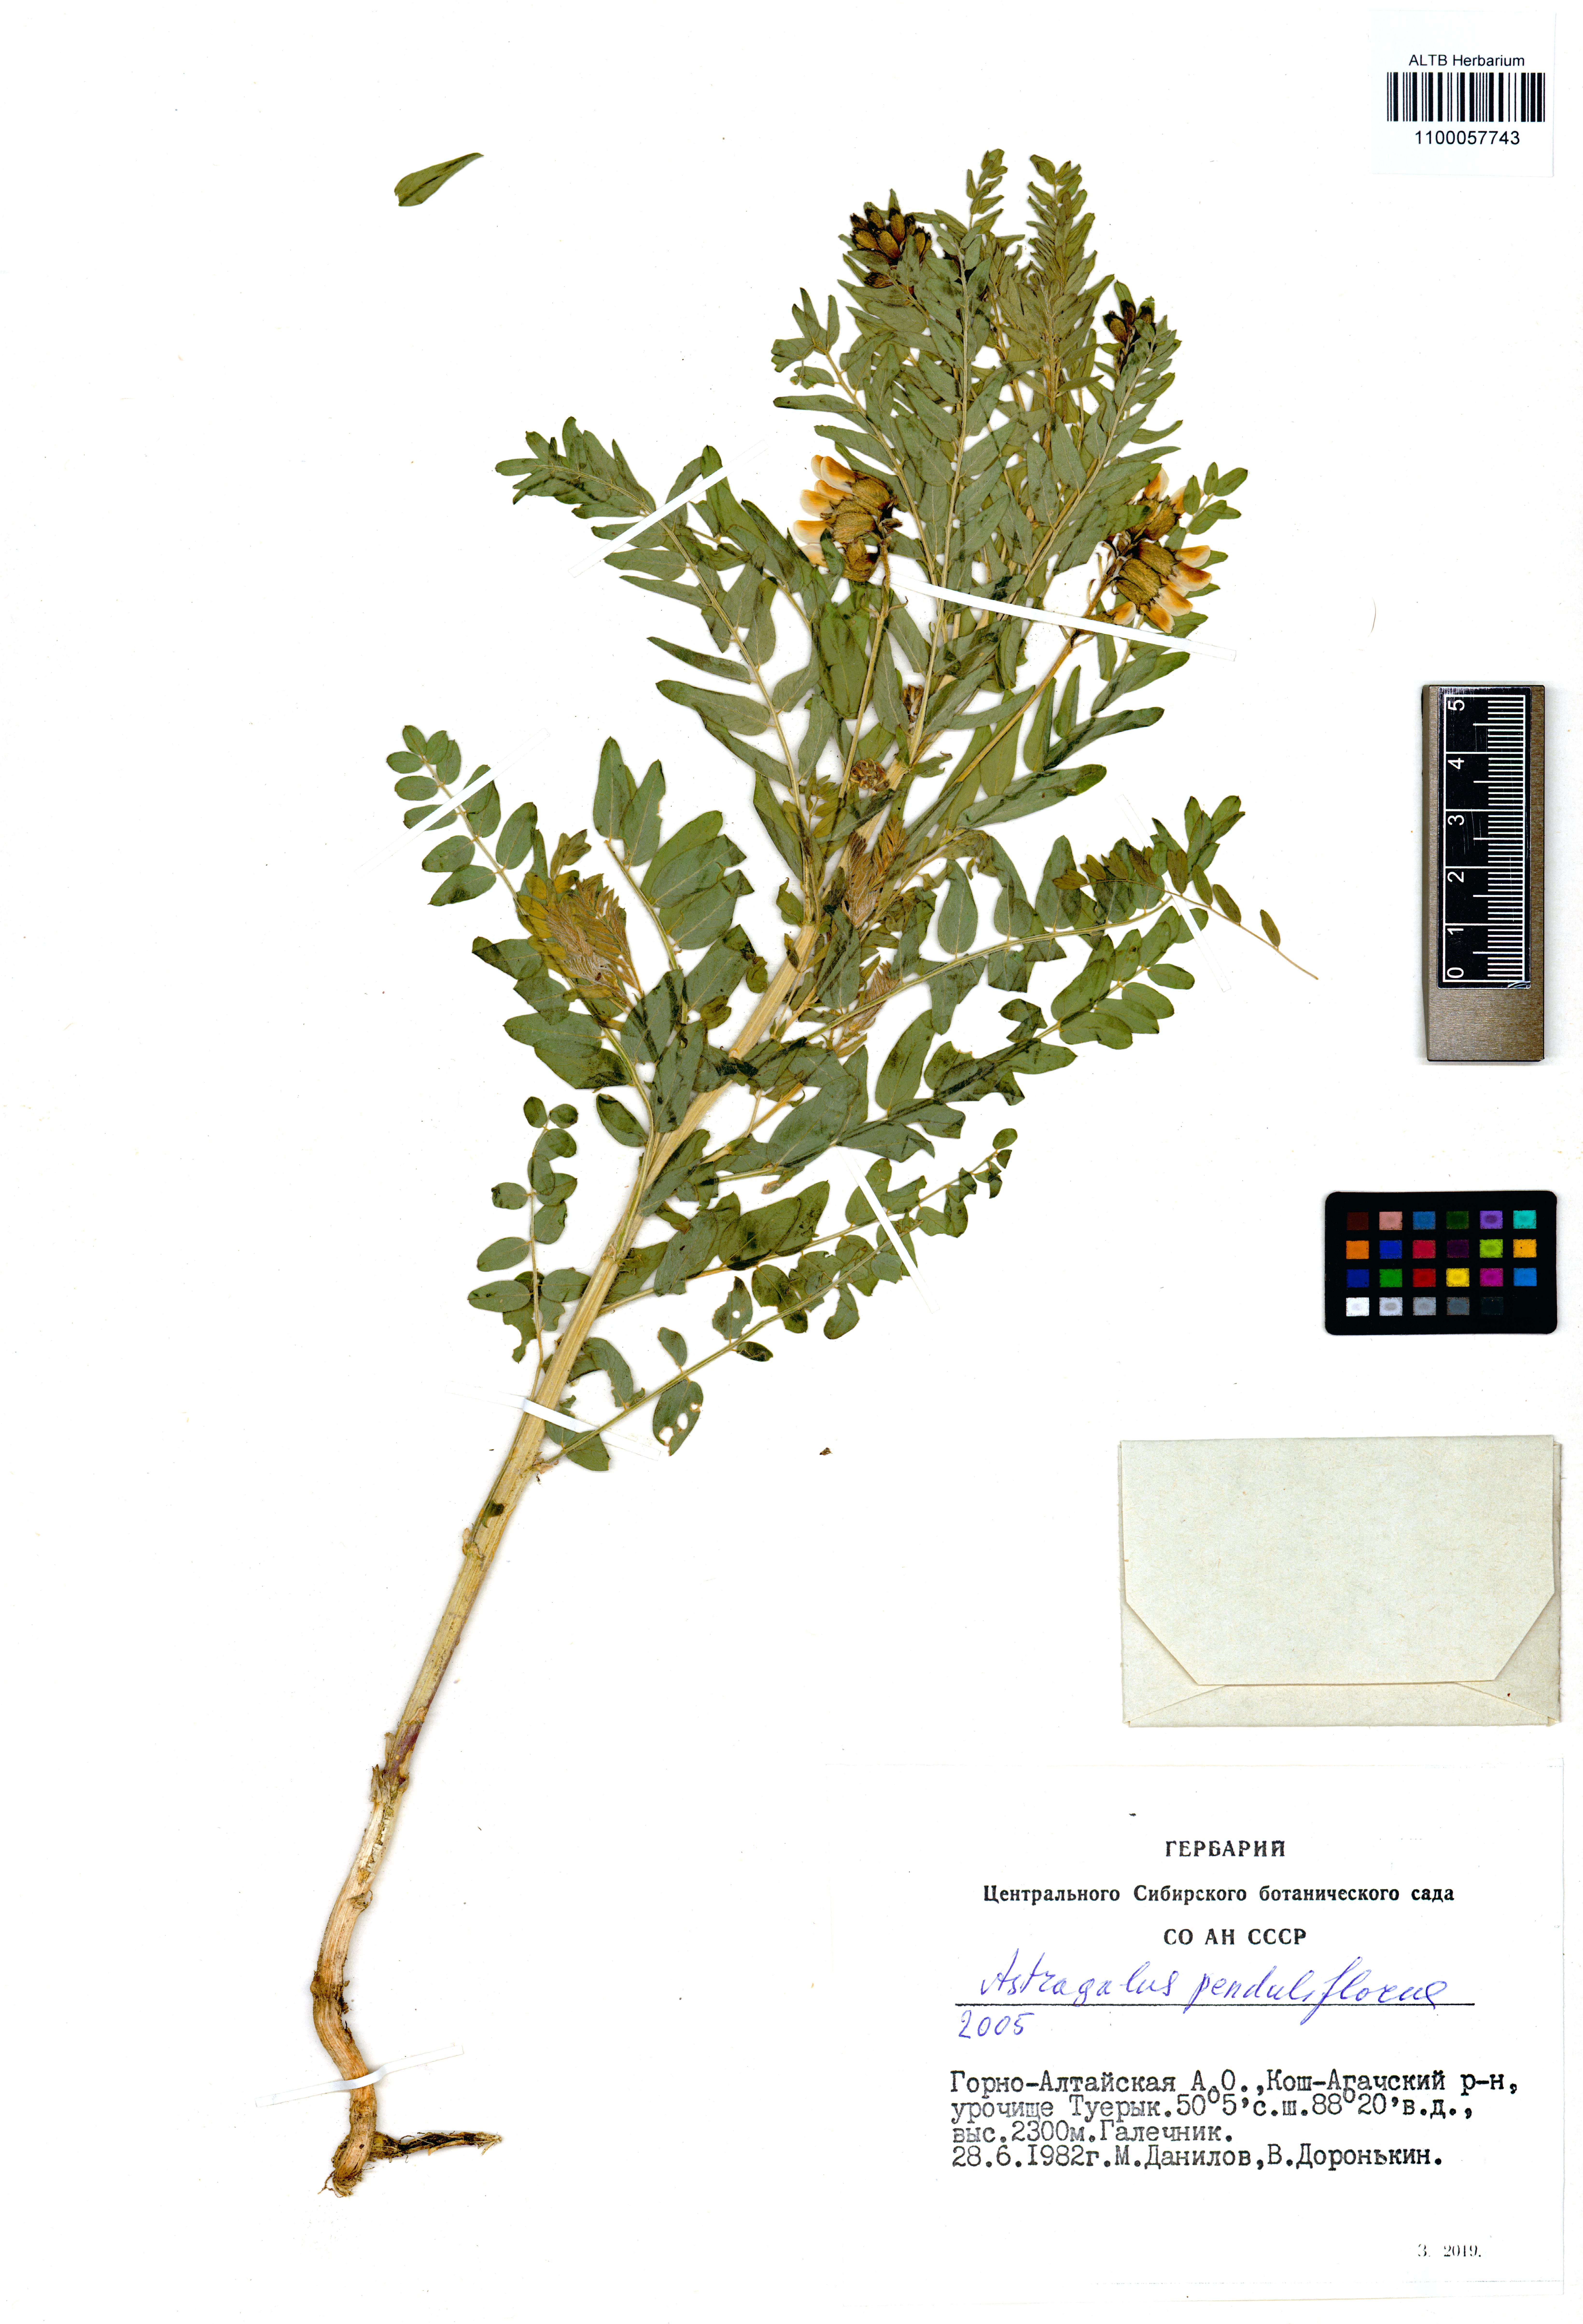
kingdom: Plantae
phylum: Tracheophyta
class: Magnoliopsida
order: Fabales
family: Fabaceae
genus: Astragalus
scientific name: Astragalus penduliflorus
